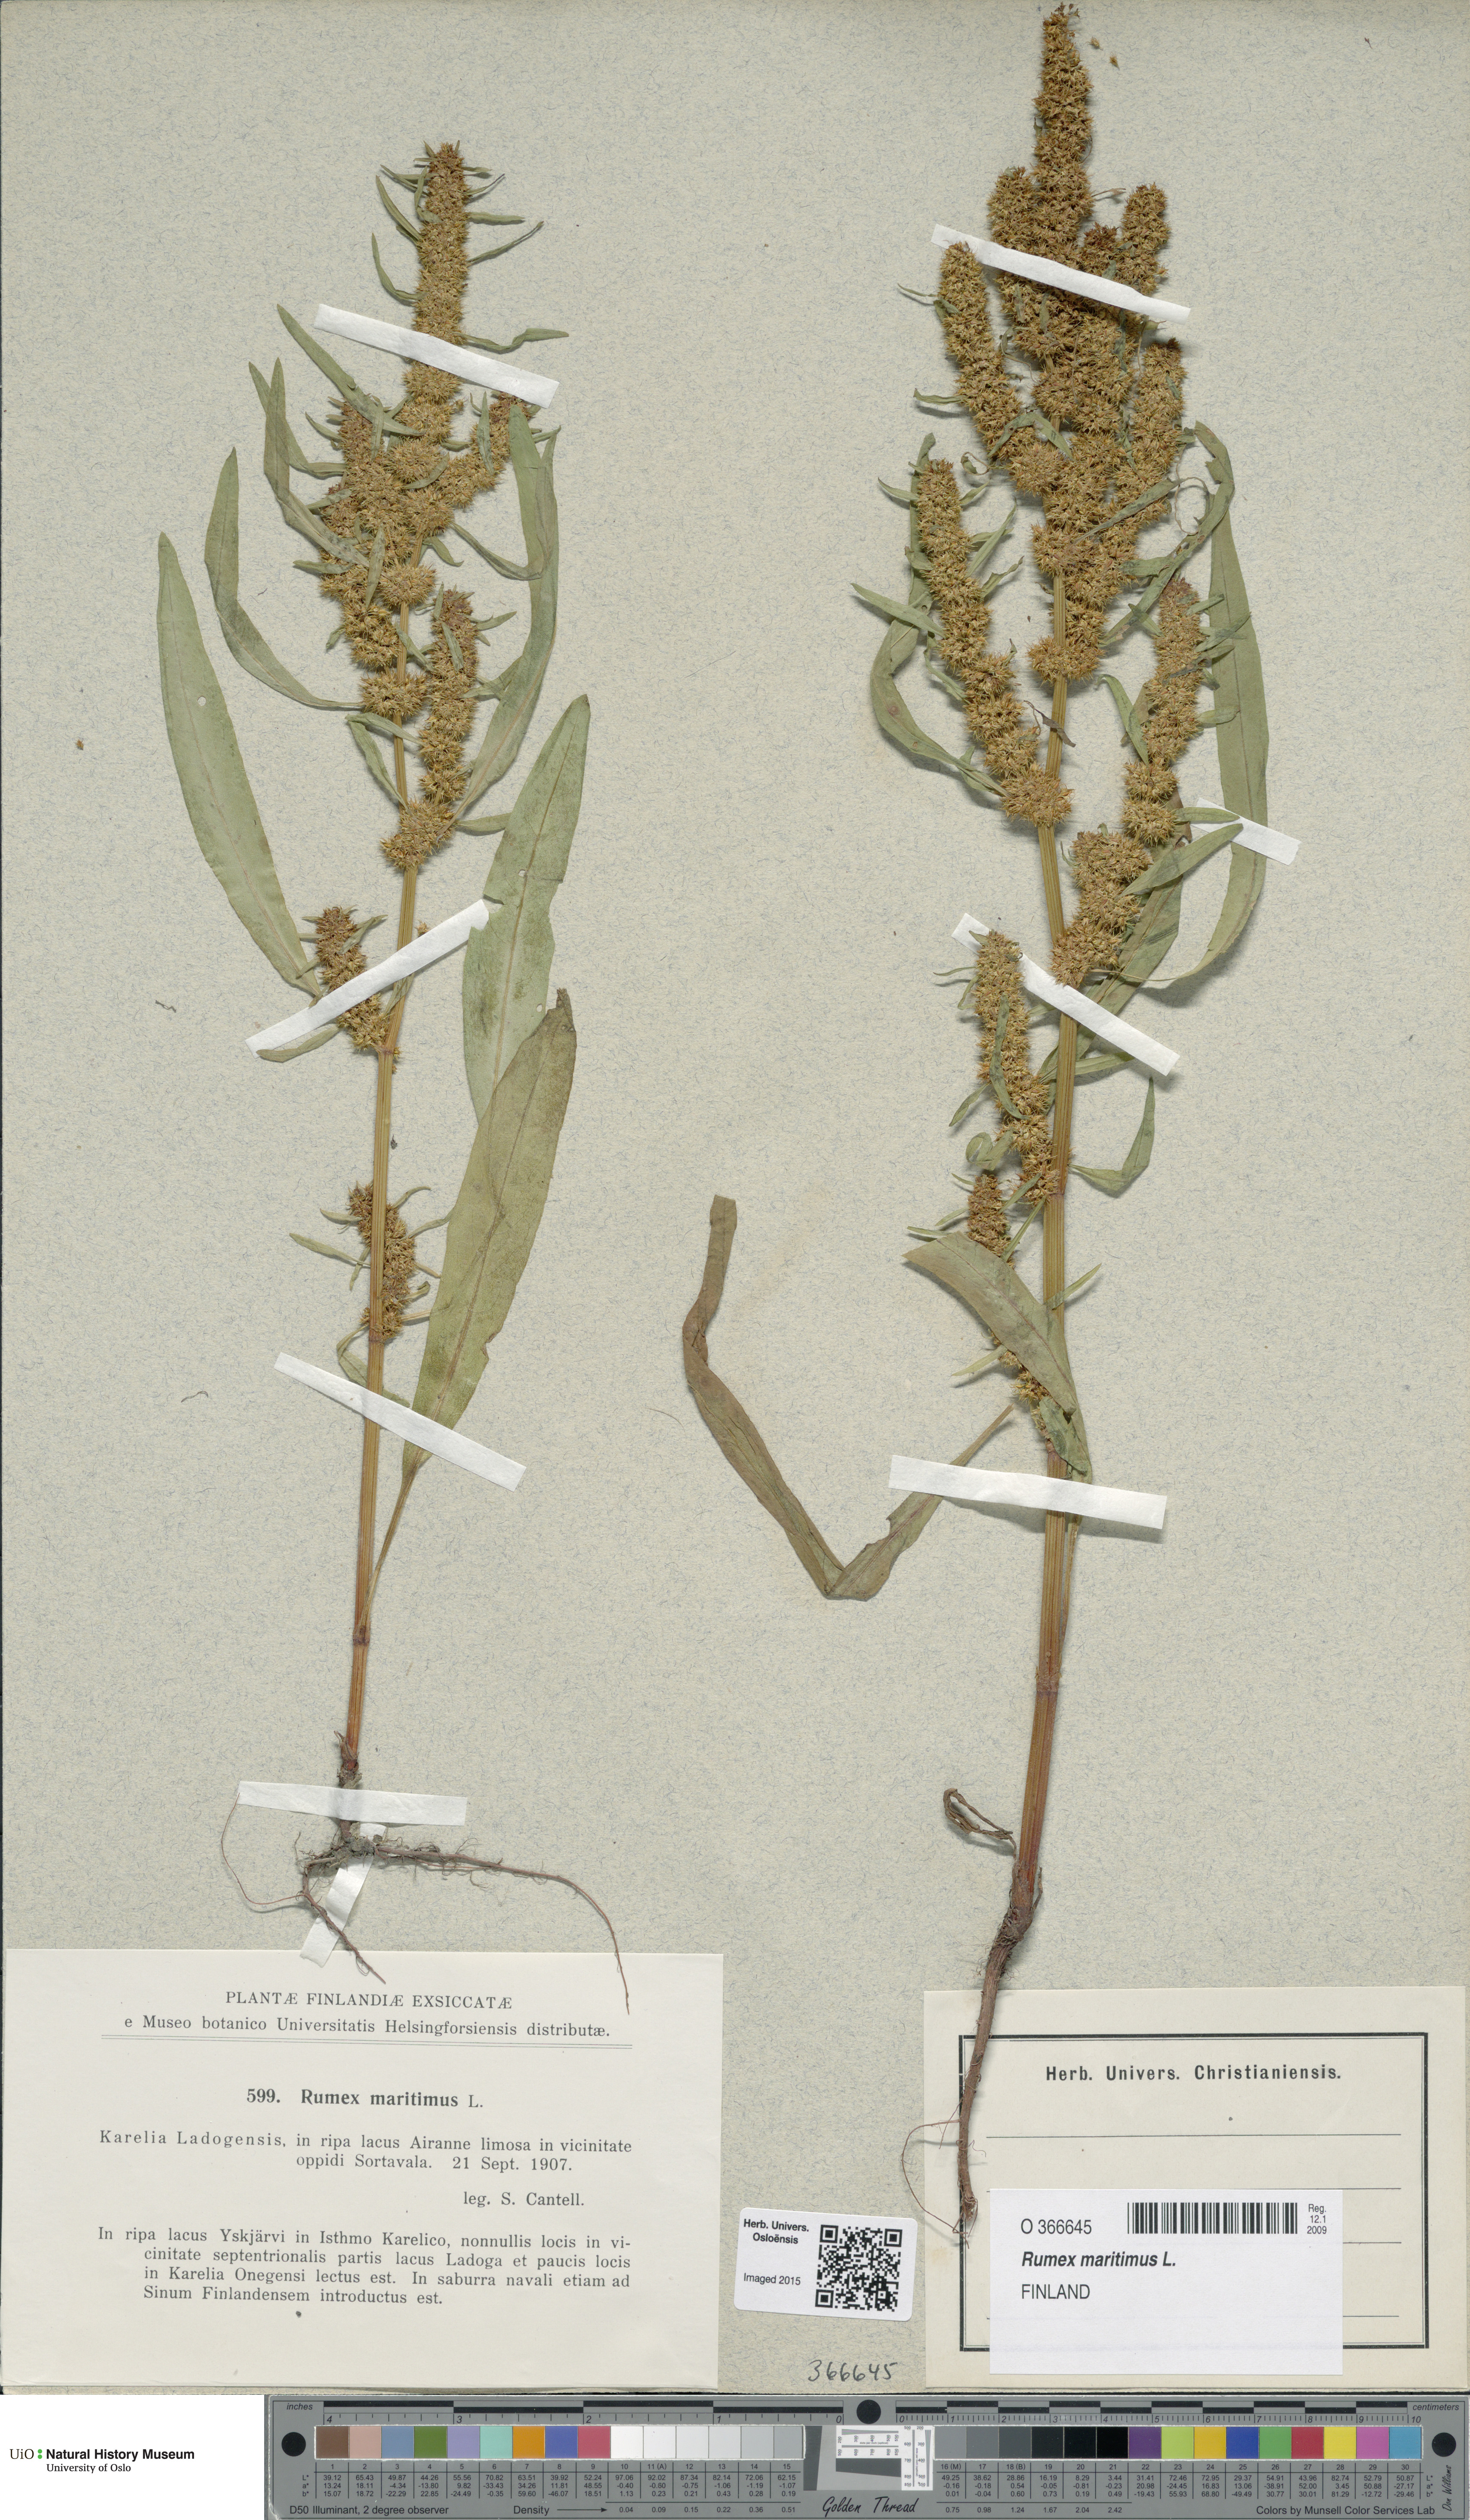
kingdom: Plantae
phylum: Tracheophyta
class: Magnoliopsida
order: Caryophyllales
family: Polygonaceae
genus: Rumex
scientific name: Rumex maritimus
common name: Golden dock
